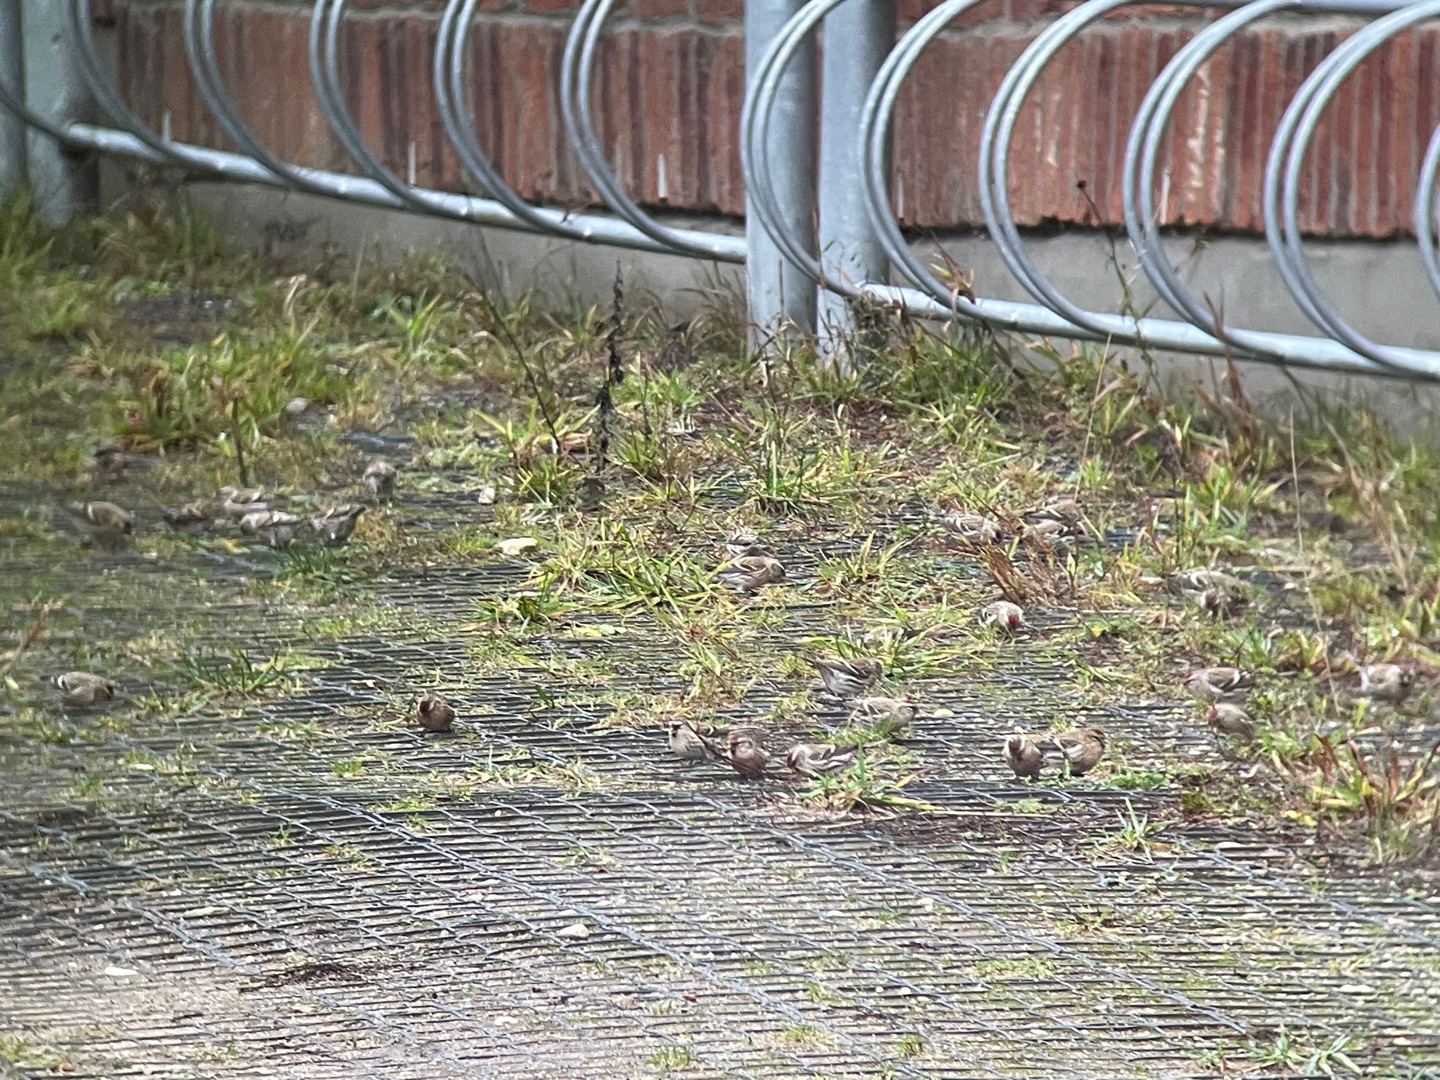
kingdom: Animalia
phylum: Chordata
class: Aves
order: Passeriformes
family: Fringillidae
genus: Acanthis
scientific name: Acanthis flammea
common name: Nordlig gråsisken
